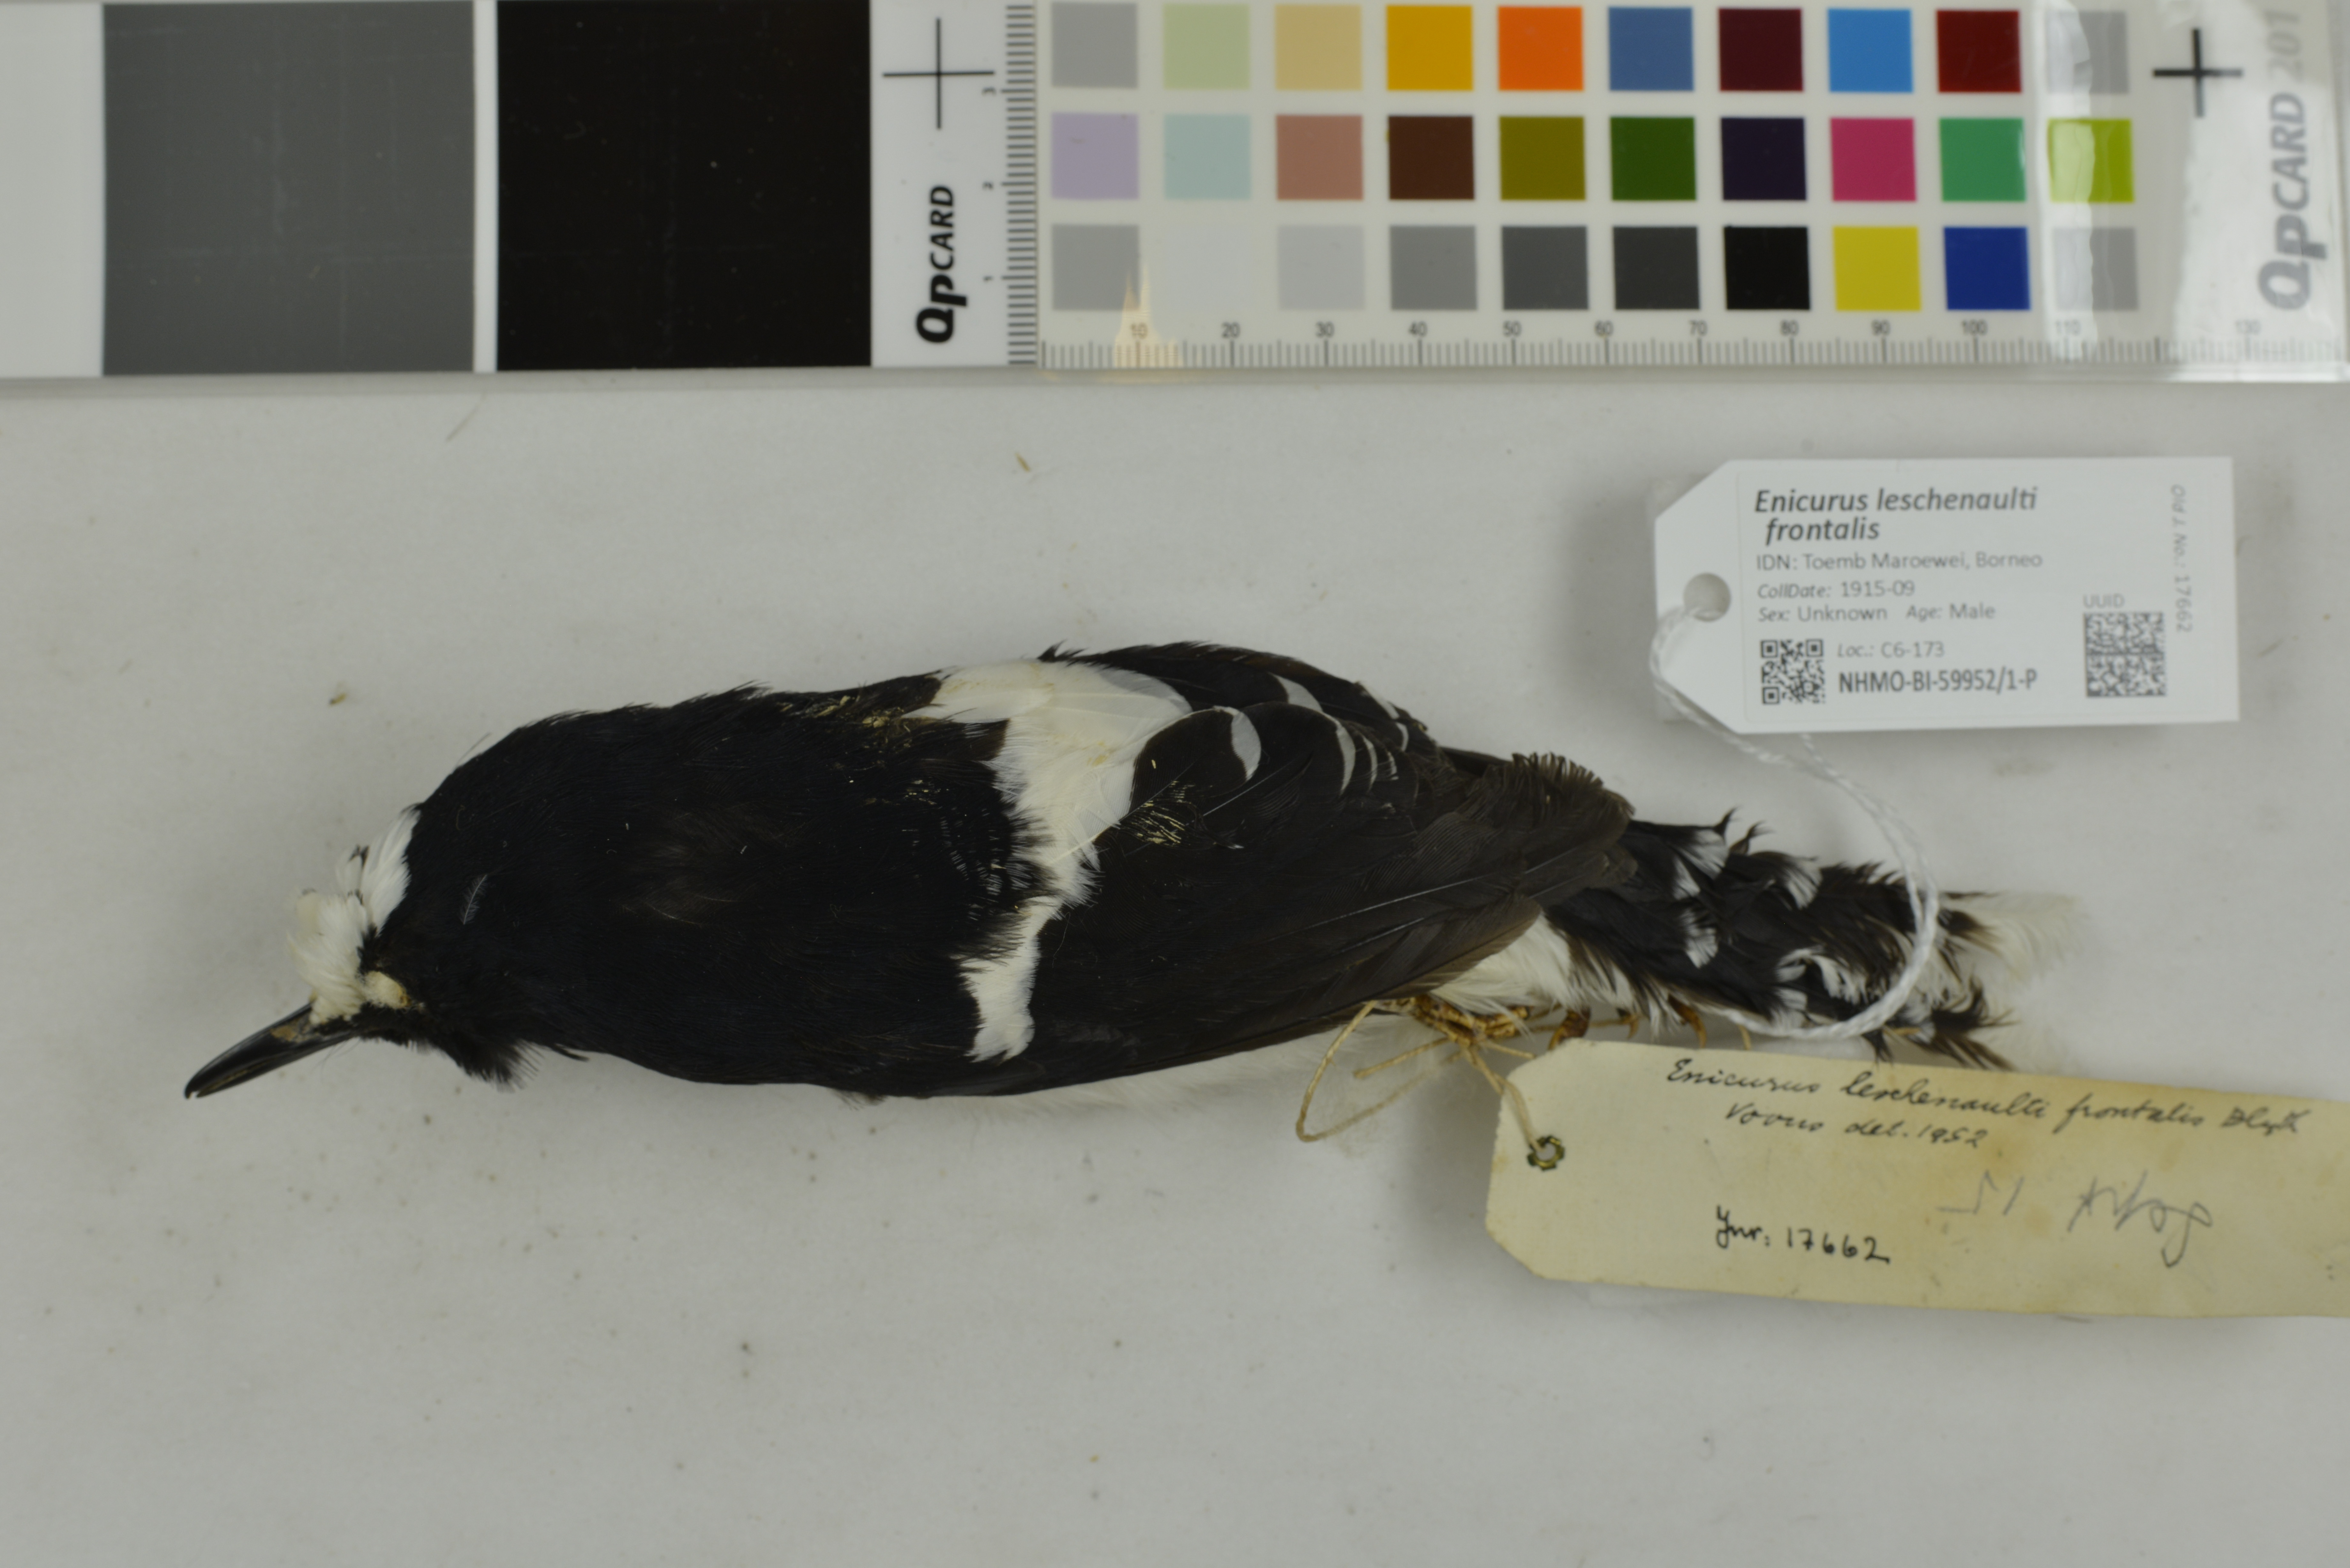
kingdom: Animalia
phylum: Chordata
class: Aves
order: Passeriformes
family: Muscicapidae
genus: Enicurus
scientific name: Enicurus leschenaulti
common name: White-crowned forktail
